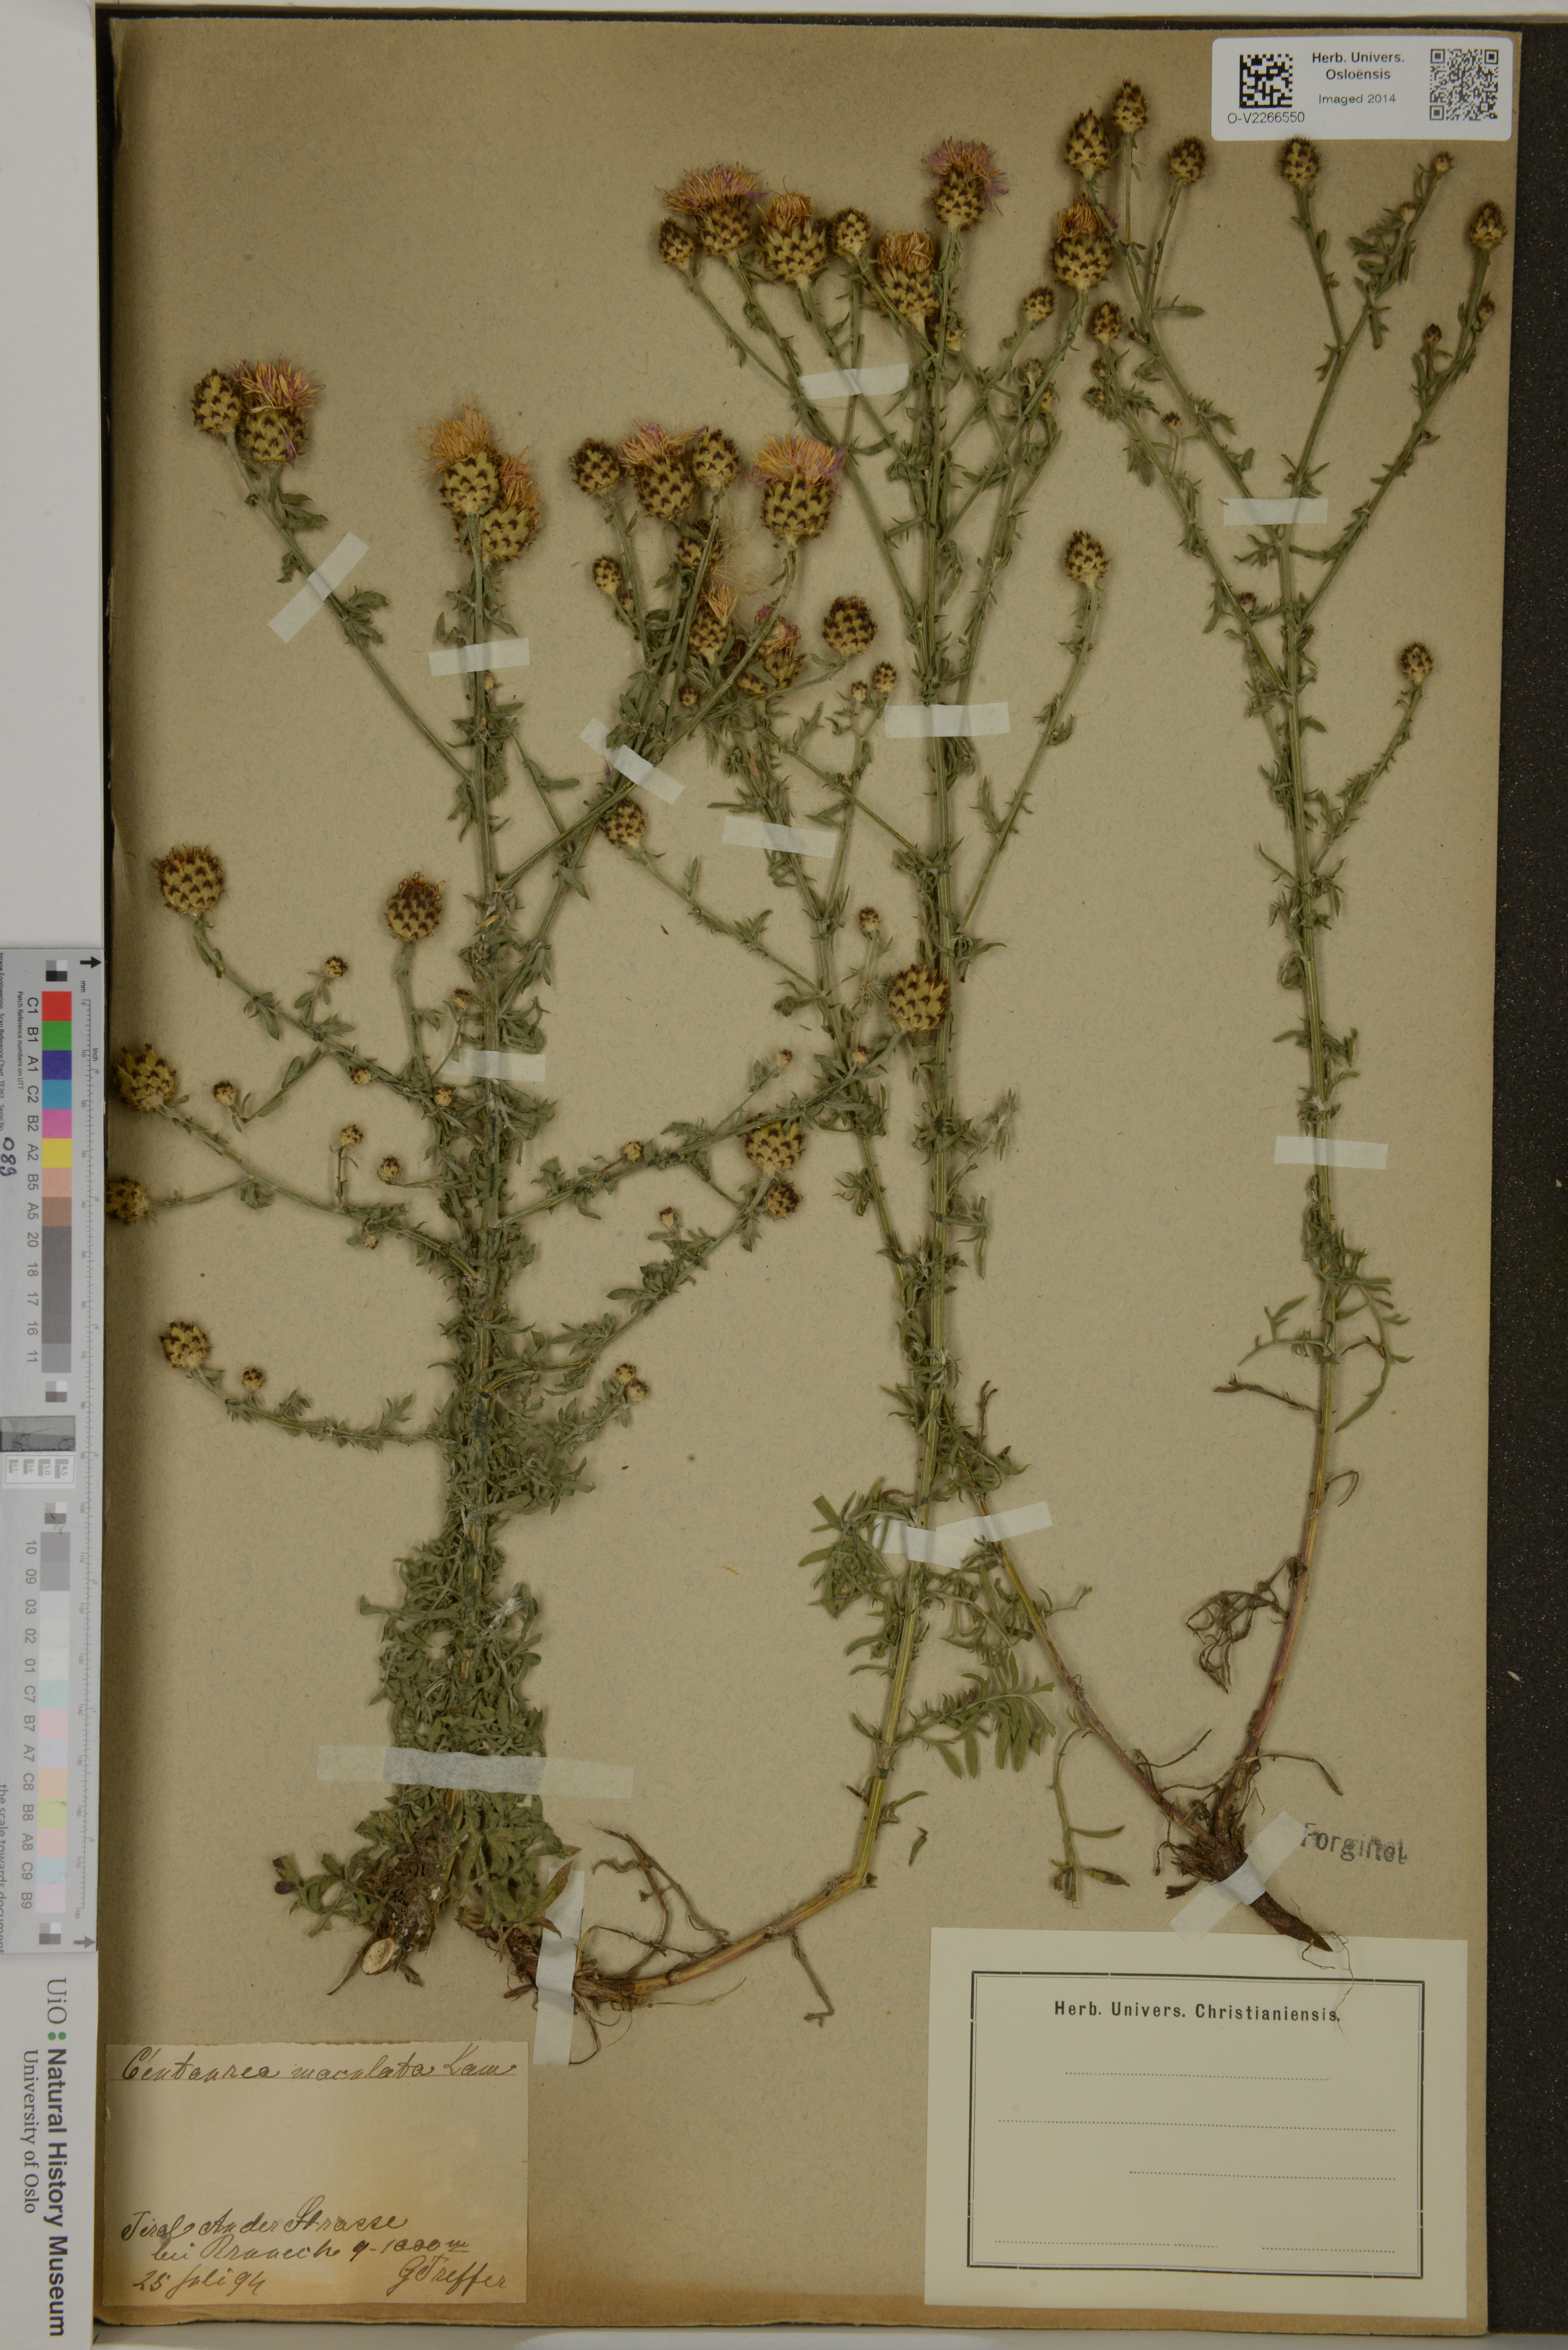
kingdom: Plantae
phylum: Tracheophyta
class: Magnoliopsida
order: Asterales
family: Asteraceae
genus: Centaurea
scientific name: Centaurea stoebe
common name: Spotted knapweed
